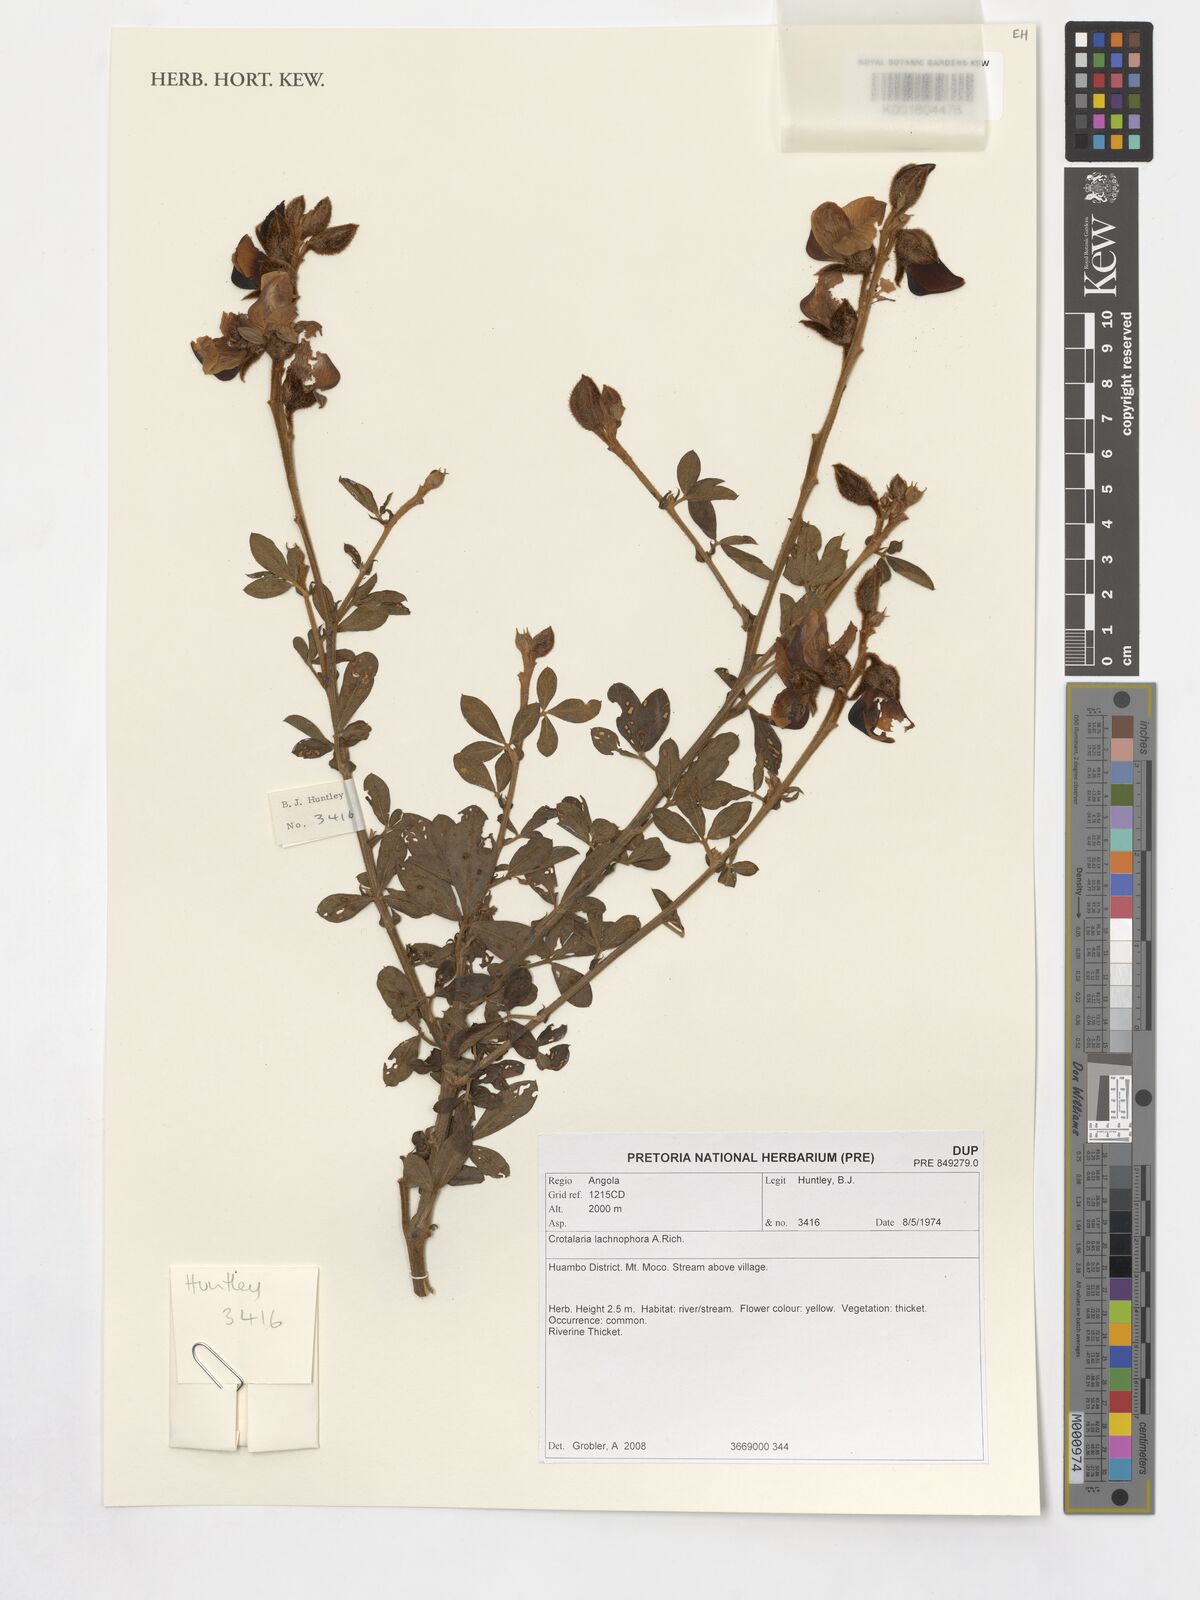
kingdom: Plantae
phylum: Tracheophyta
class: Magnoliopsida
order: Fabales
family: Fabaceae
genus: Crotalaria
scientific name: Crotalaria lachnophora
